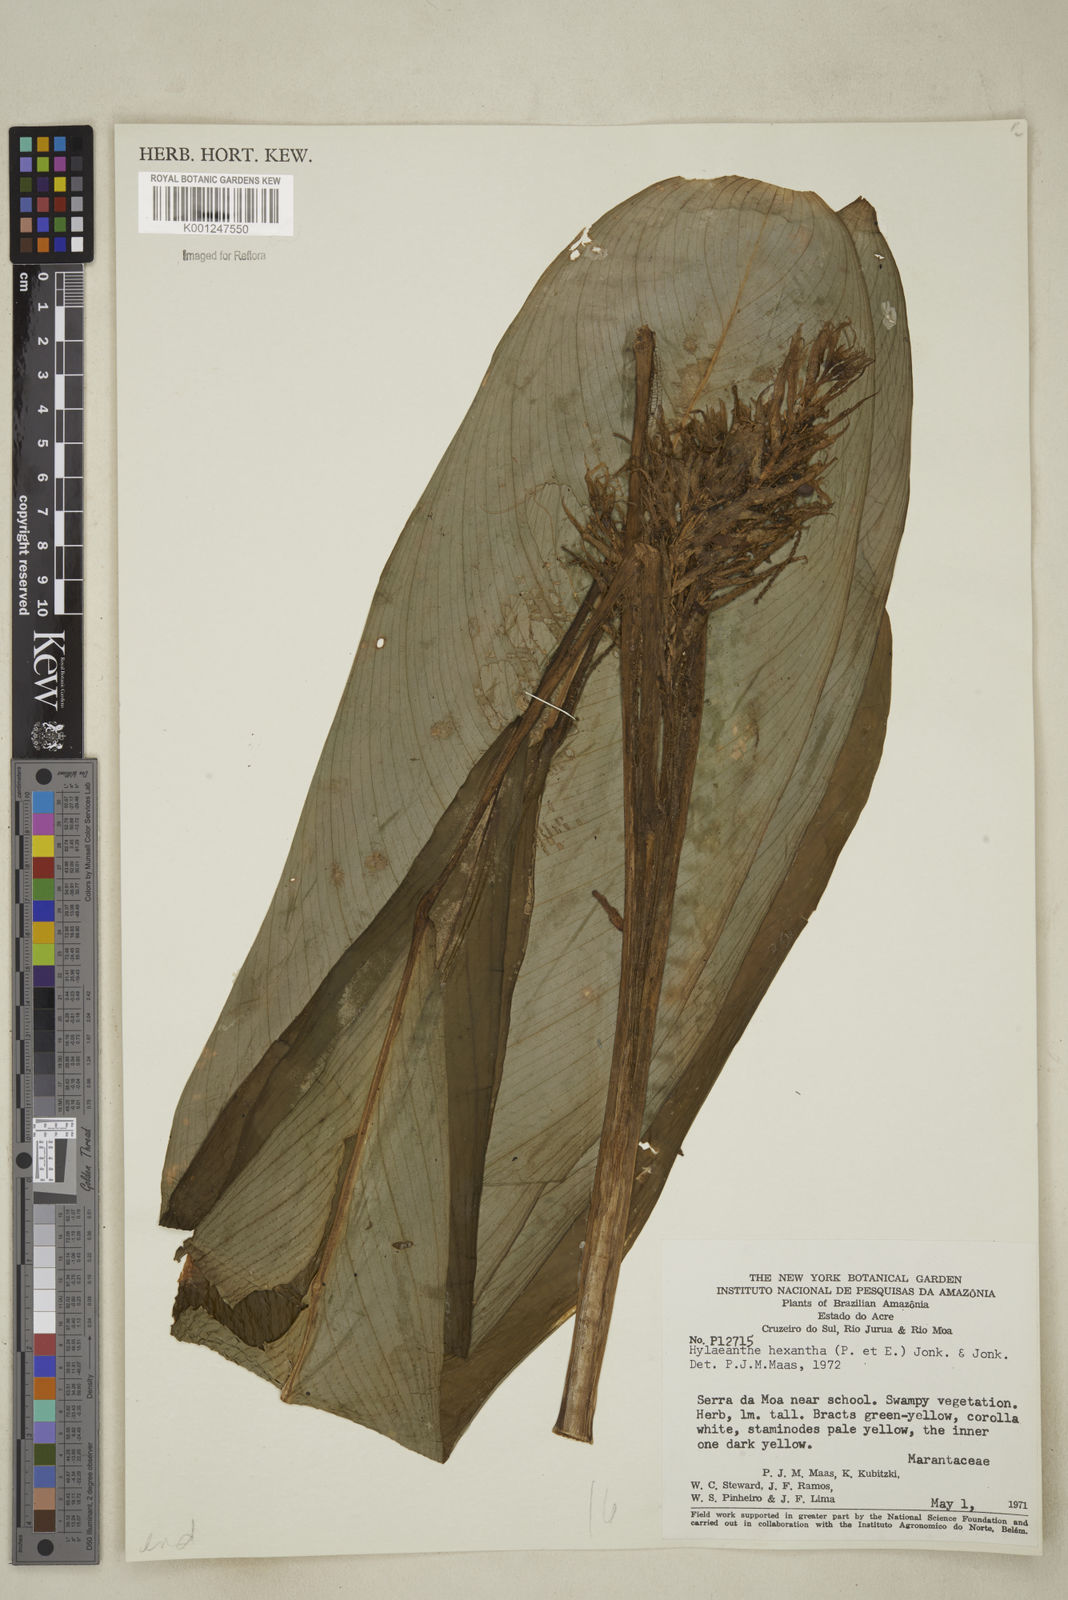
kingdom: Plantae
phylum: Tracheophyta
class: Liliopsida
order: Zingiberales
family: Marantaceae
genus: Hylaeanthe
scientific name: Hylaeanthe hexantha
